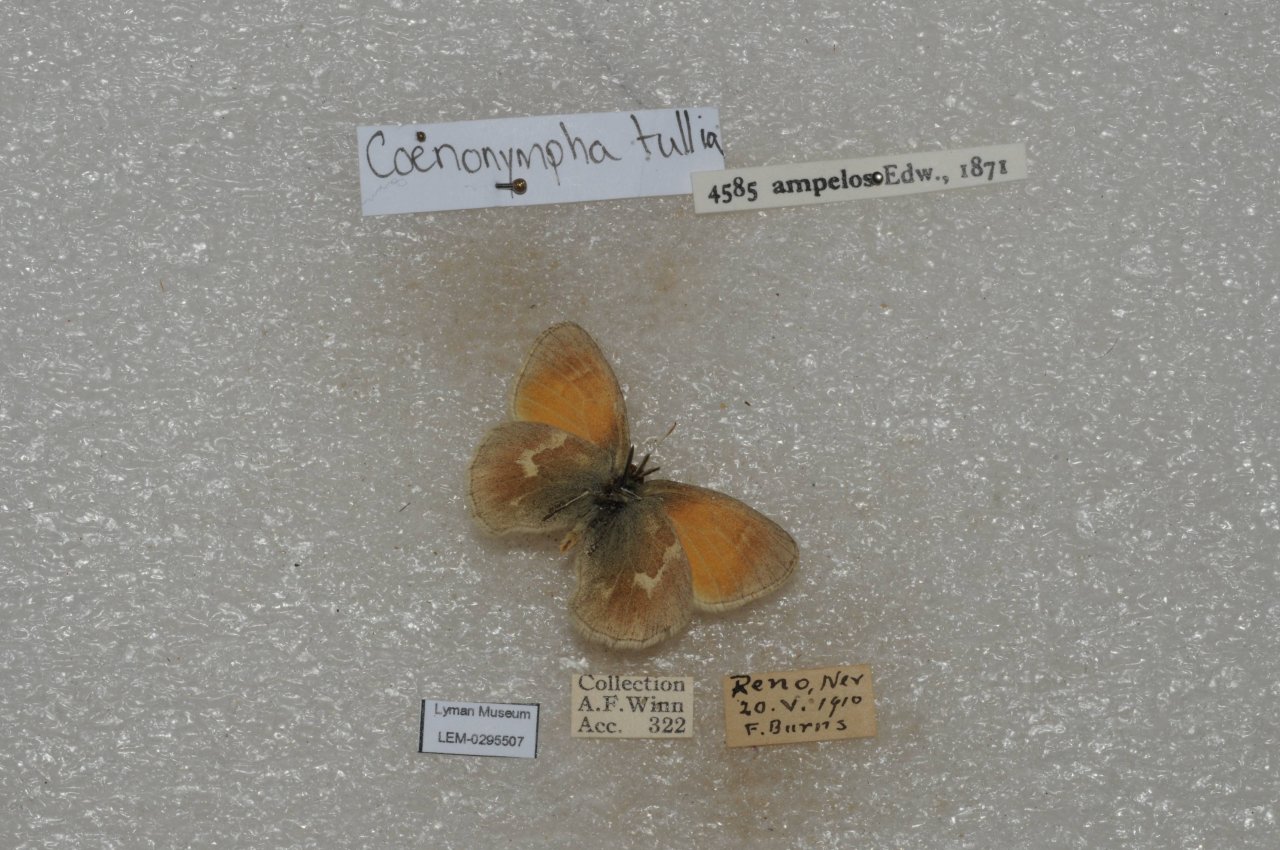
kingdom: Animalia
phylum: Arthropoda
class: Insecta
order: Lepidoptera
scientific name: Lepidoptera
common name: Butterflies
